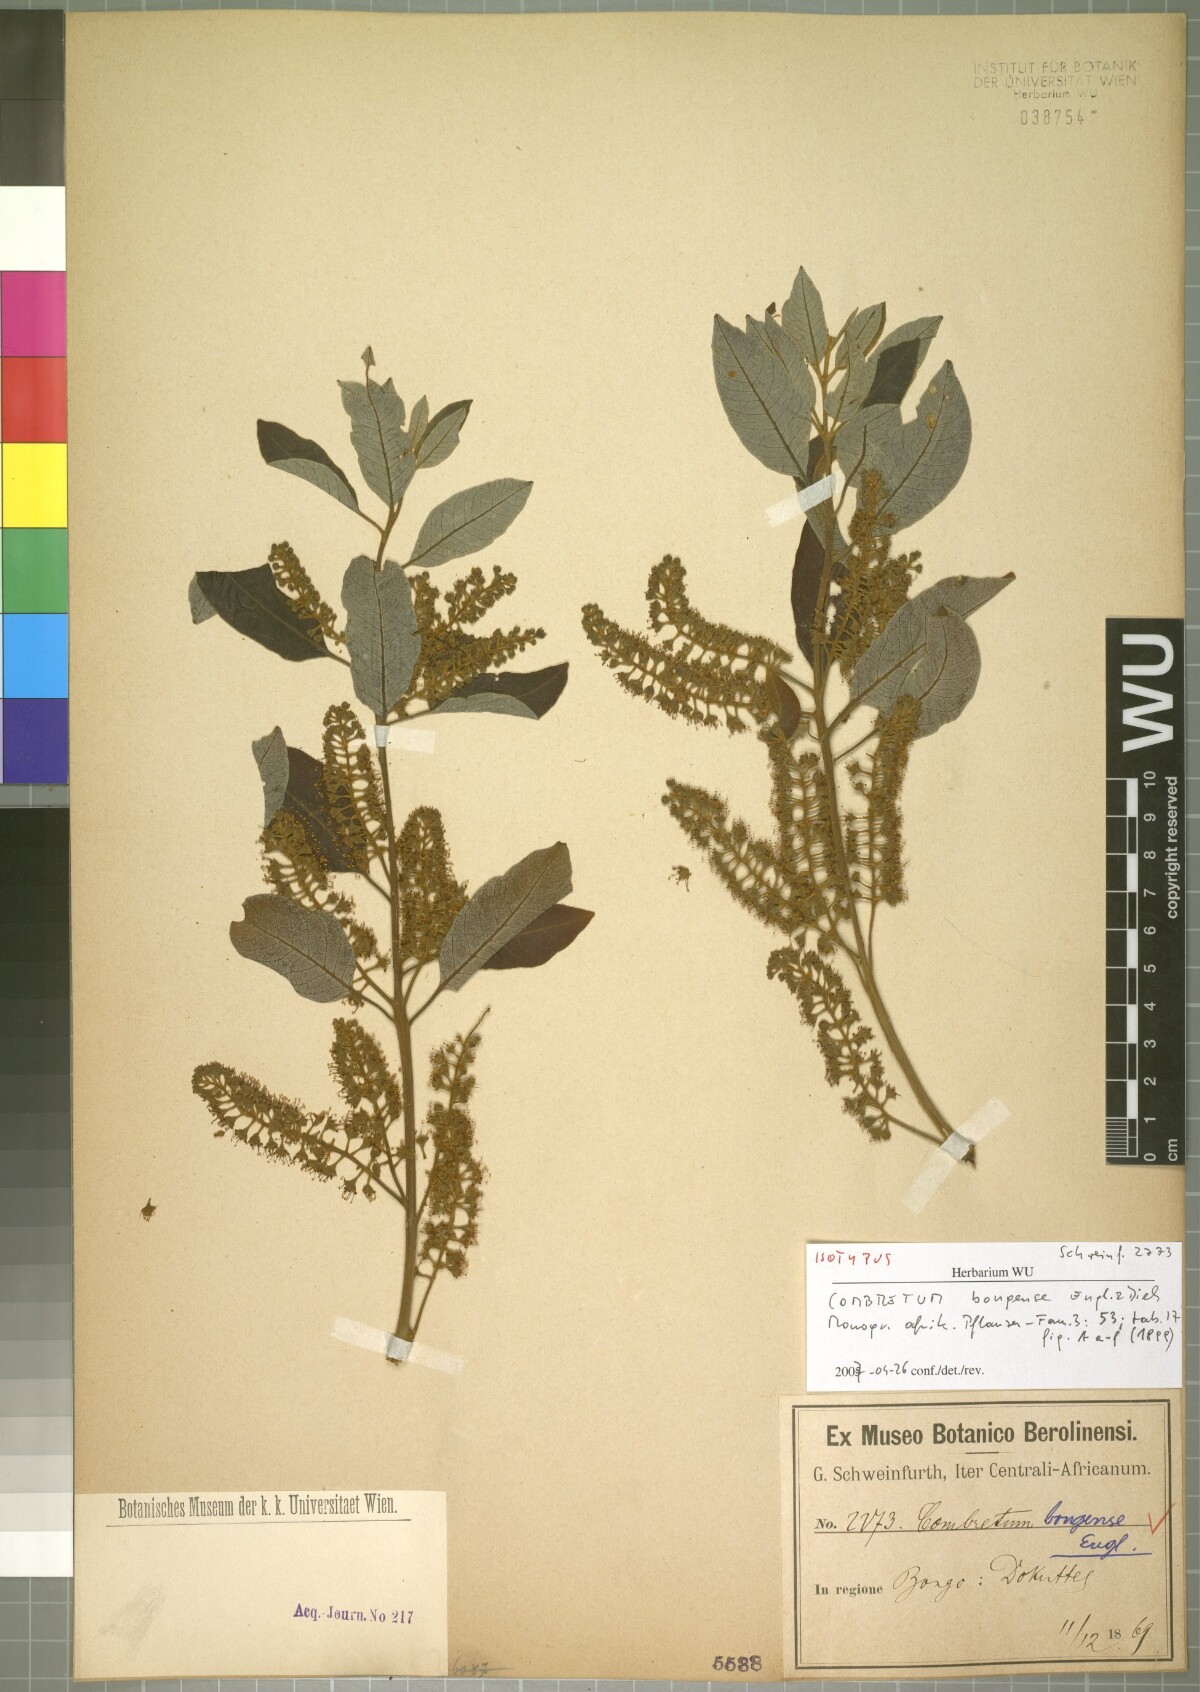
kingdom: Plantae
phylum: Tracheophyta
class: Magnoliopsida
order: Myrtales
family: Combretaceae
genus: Combretum
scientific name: Combretum collinum
